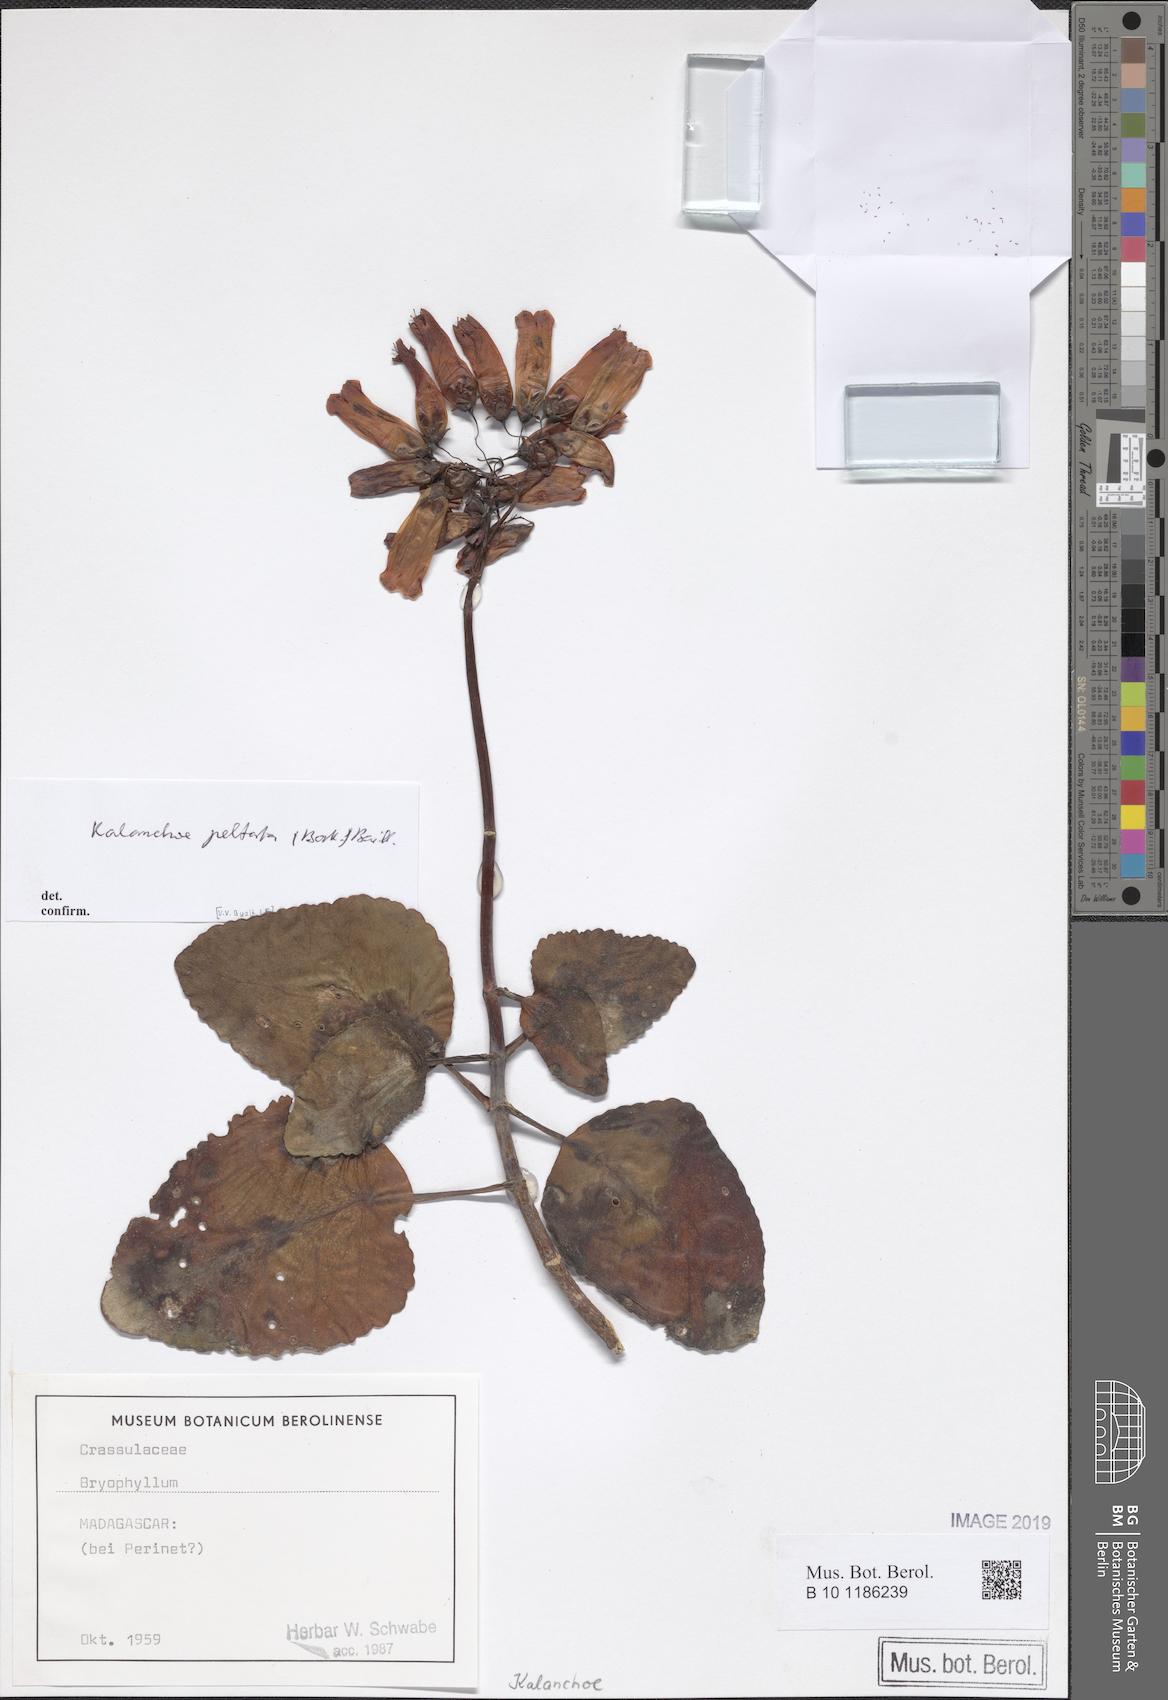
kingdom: Plantae
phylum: Tracheophyta
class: Magnoliopsida
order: Saxifragales
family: Crassulaceae
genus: Kalanchoe
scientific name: Kalanchoe peltata
